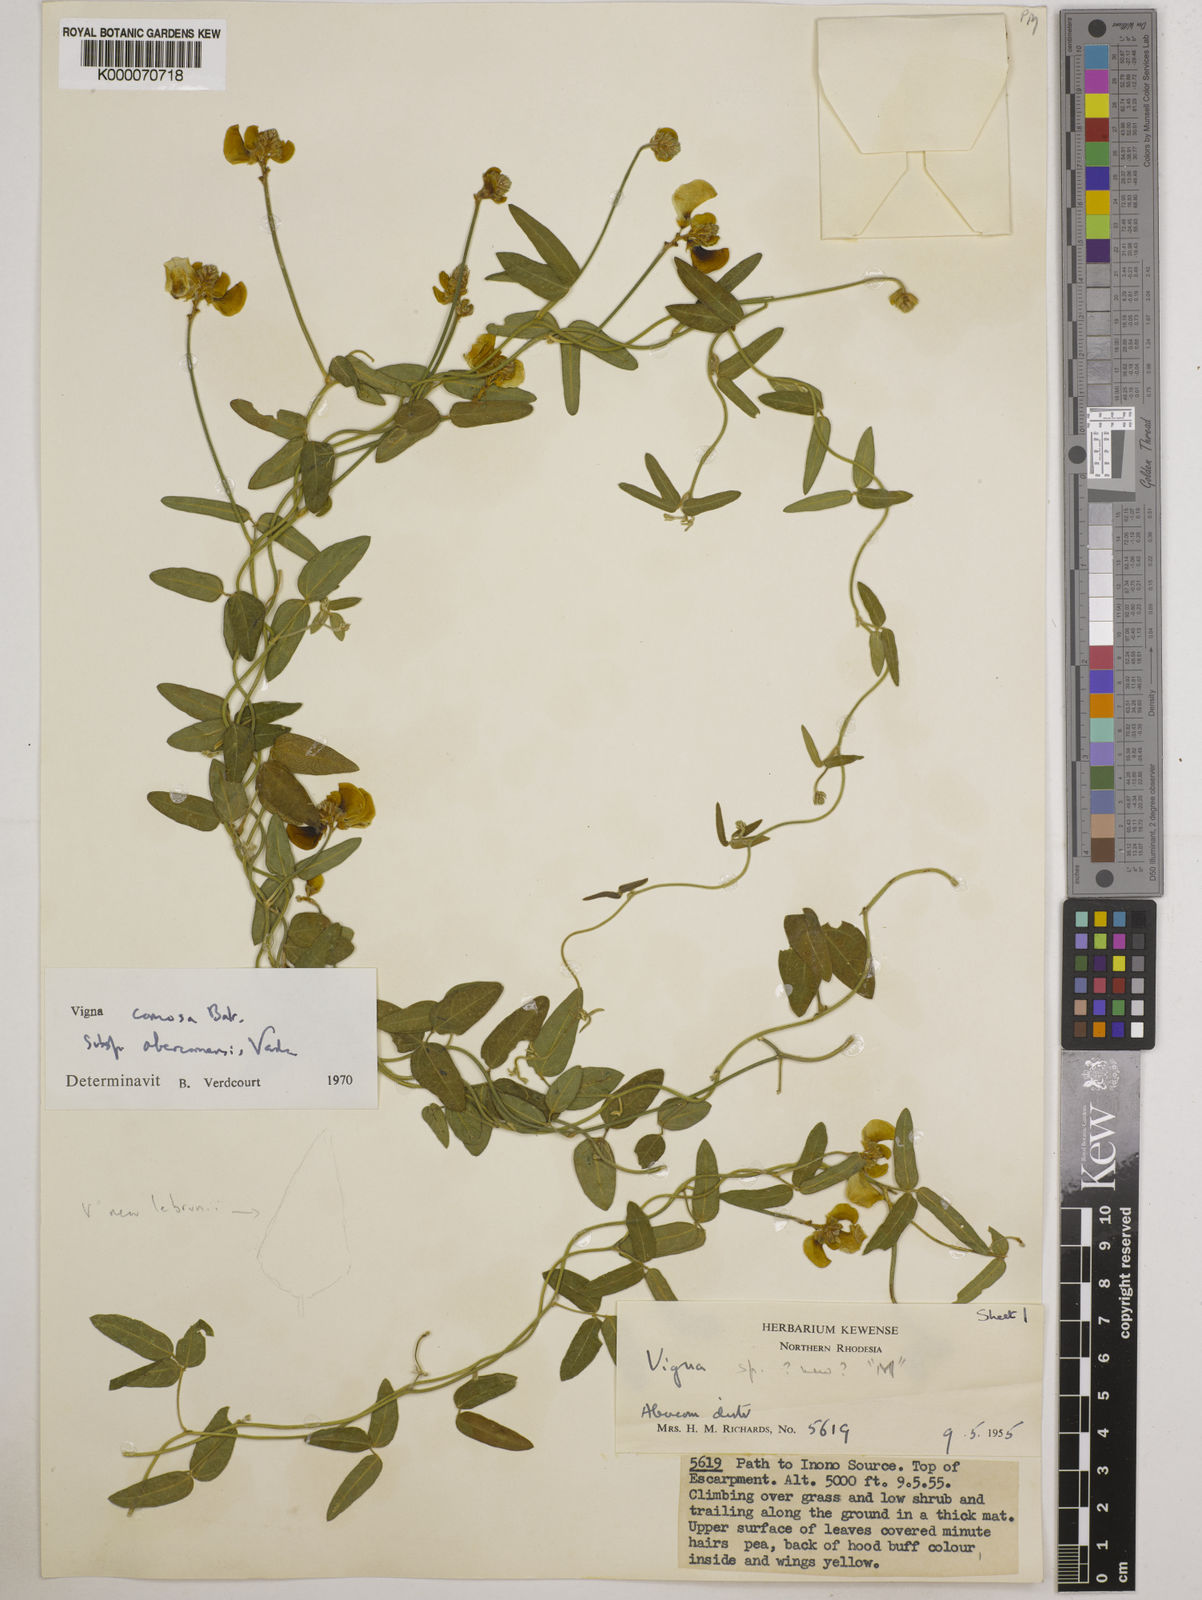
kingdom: Plantae
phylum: Tracheophyta
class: Magnoliopsida
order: Fabales
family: Fabaceae
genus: Vigna
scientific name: Vigna comosa
